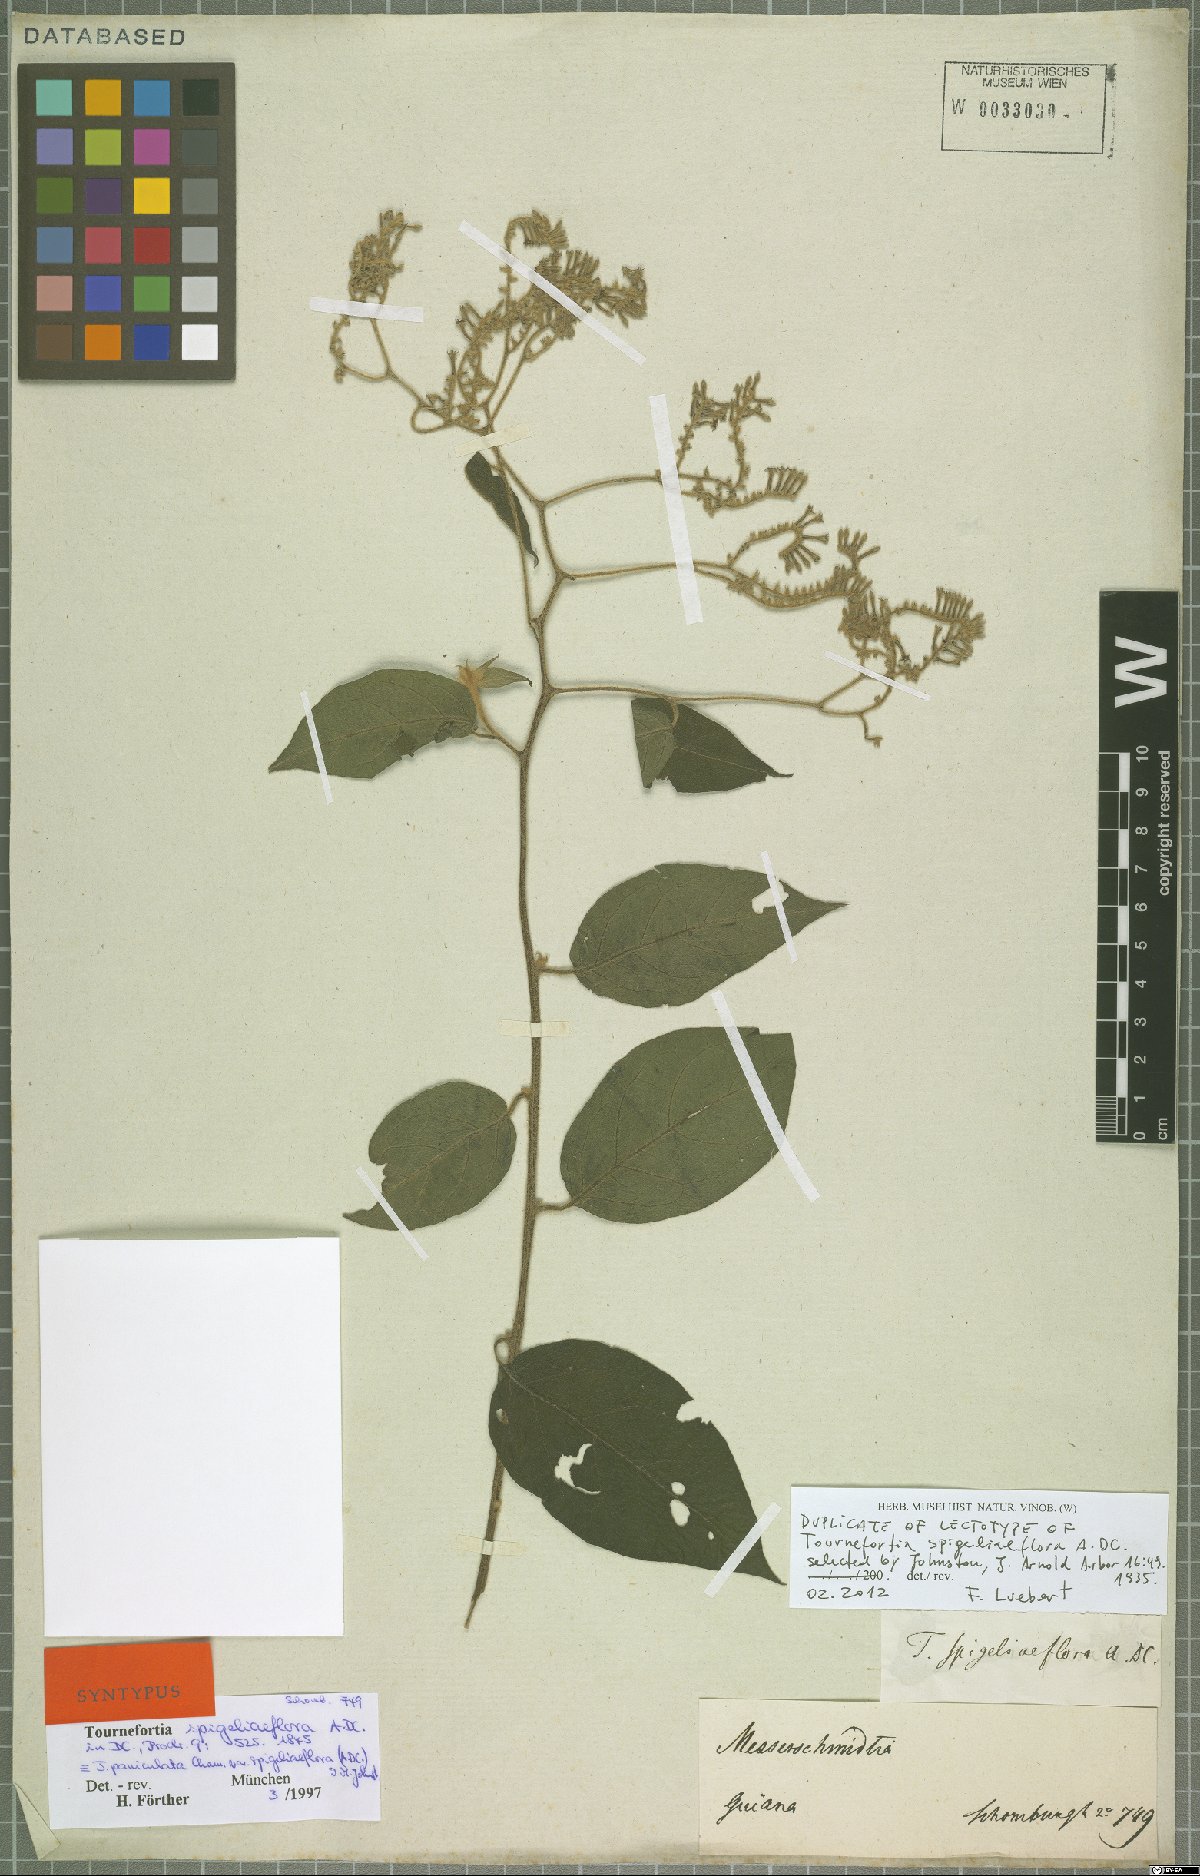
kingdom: Plantae
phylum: Tracheophyta
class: Magnoliopsida
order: Boraginales
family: Heliotropiaceae
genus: Myriopus
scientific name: Myriopus paniculatus
